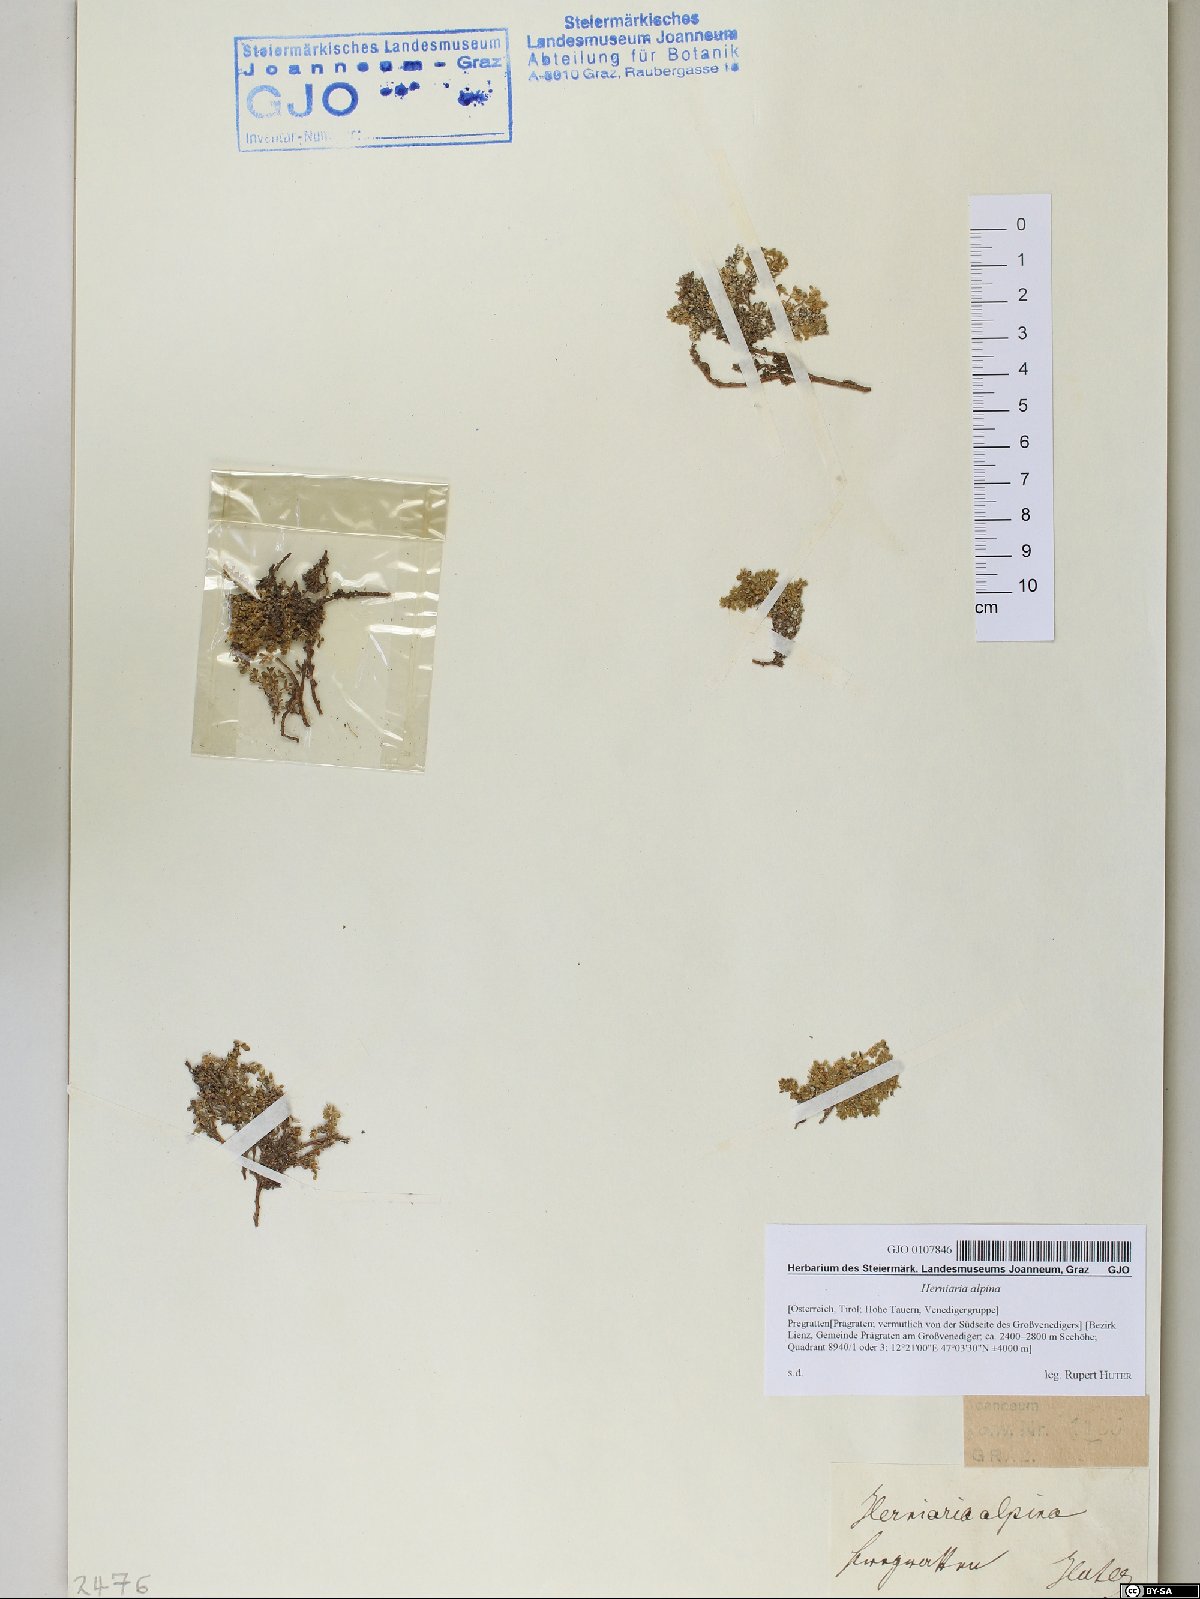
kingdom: Plantae
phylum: Tracheophyta
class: Magnoliopsida
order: Caryophyllales
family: Caryophyllaceae
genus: Herniaria
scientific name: Herniaria alpina
